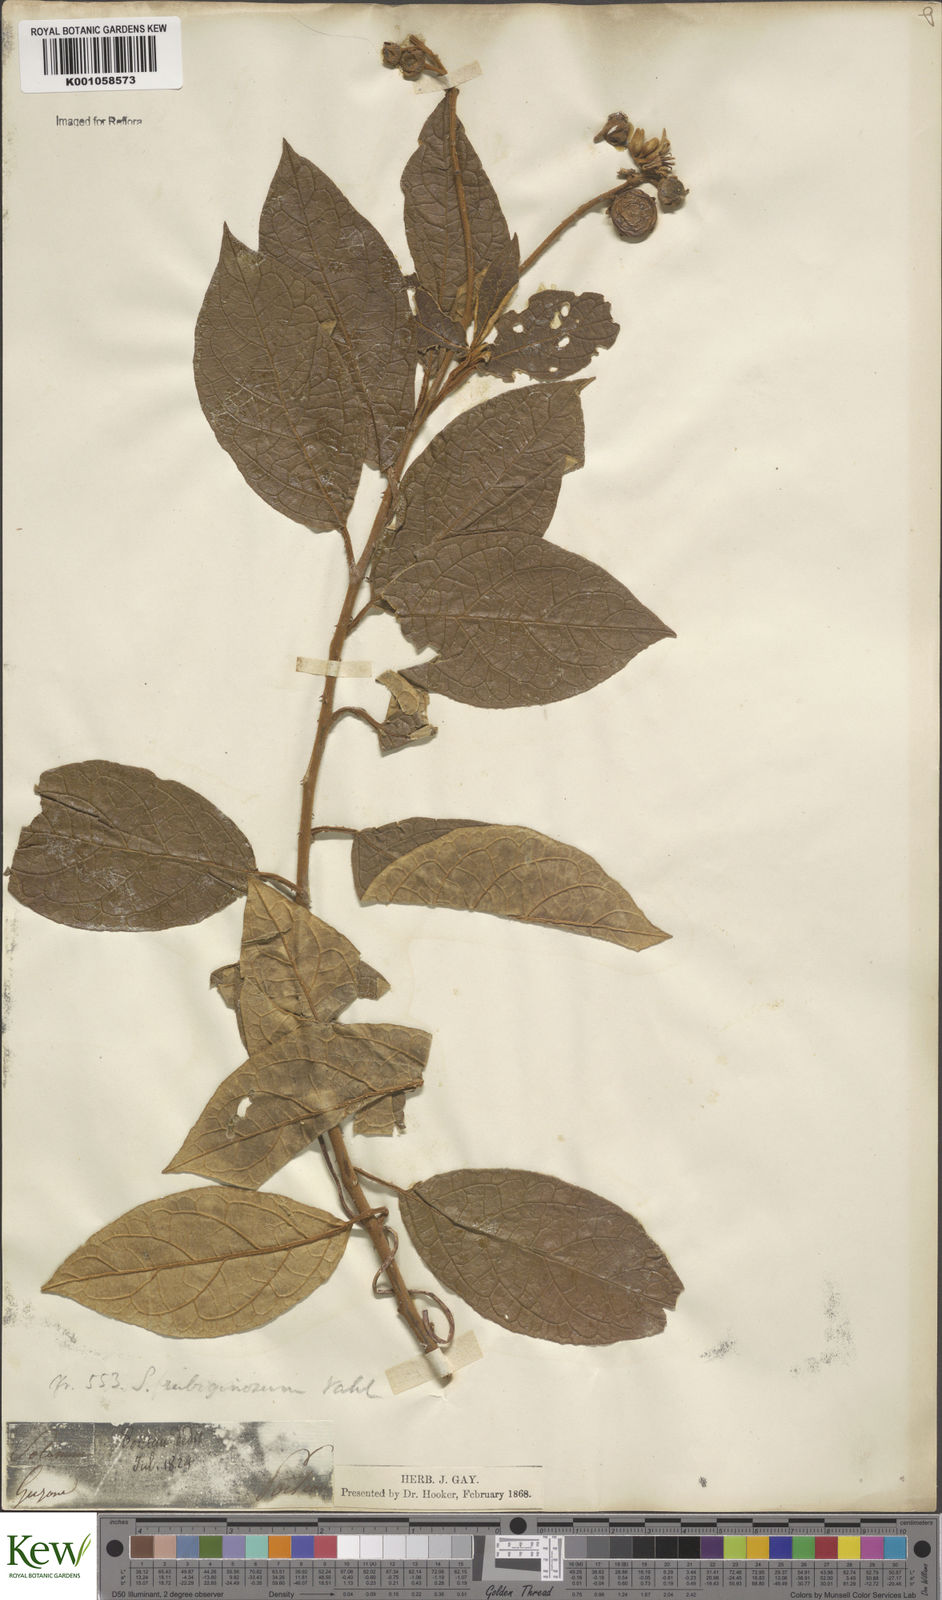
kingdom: Plantae
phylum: Tracheophyta
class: Magnoliopsida
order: Solanales
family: Solanaceae
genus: Solanum
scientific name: Solanum rubiginosum
